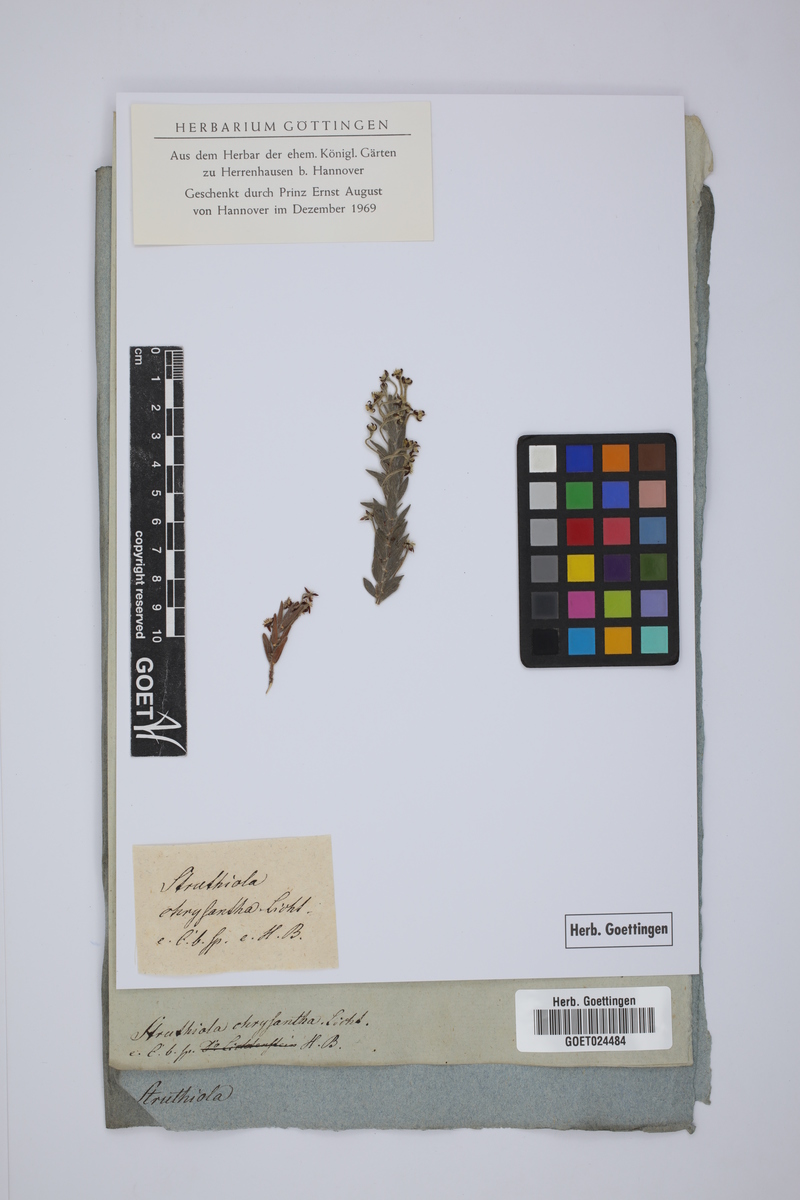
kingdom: Plantae
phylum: Tracheophyta
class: Magnoliopsida
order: Malvales
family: Thymelaeaceae
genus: Struthiola
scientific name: Struthiola tomentosa
